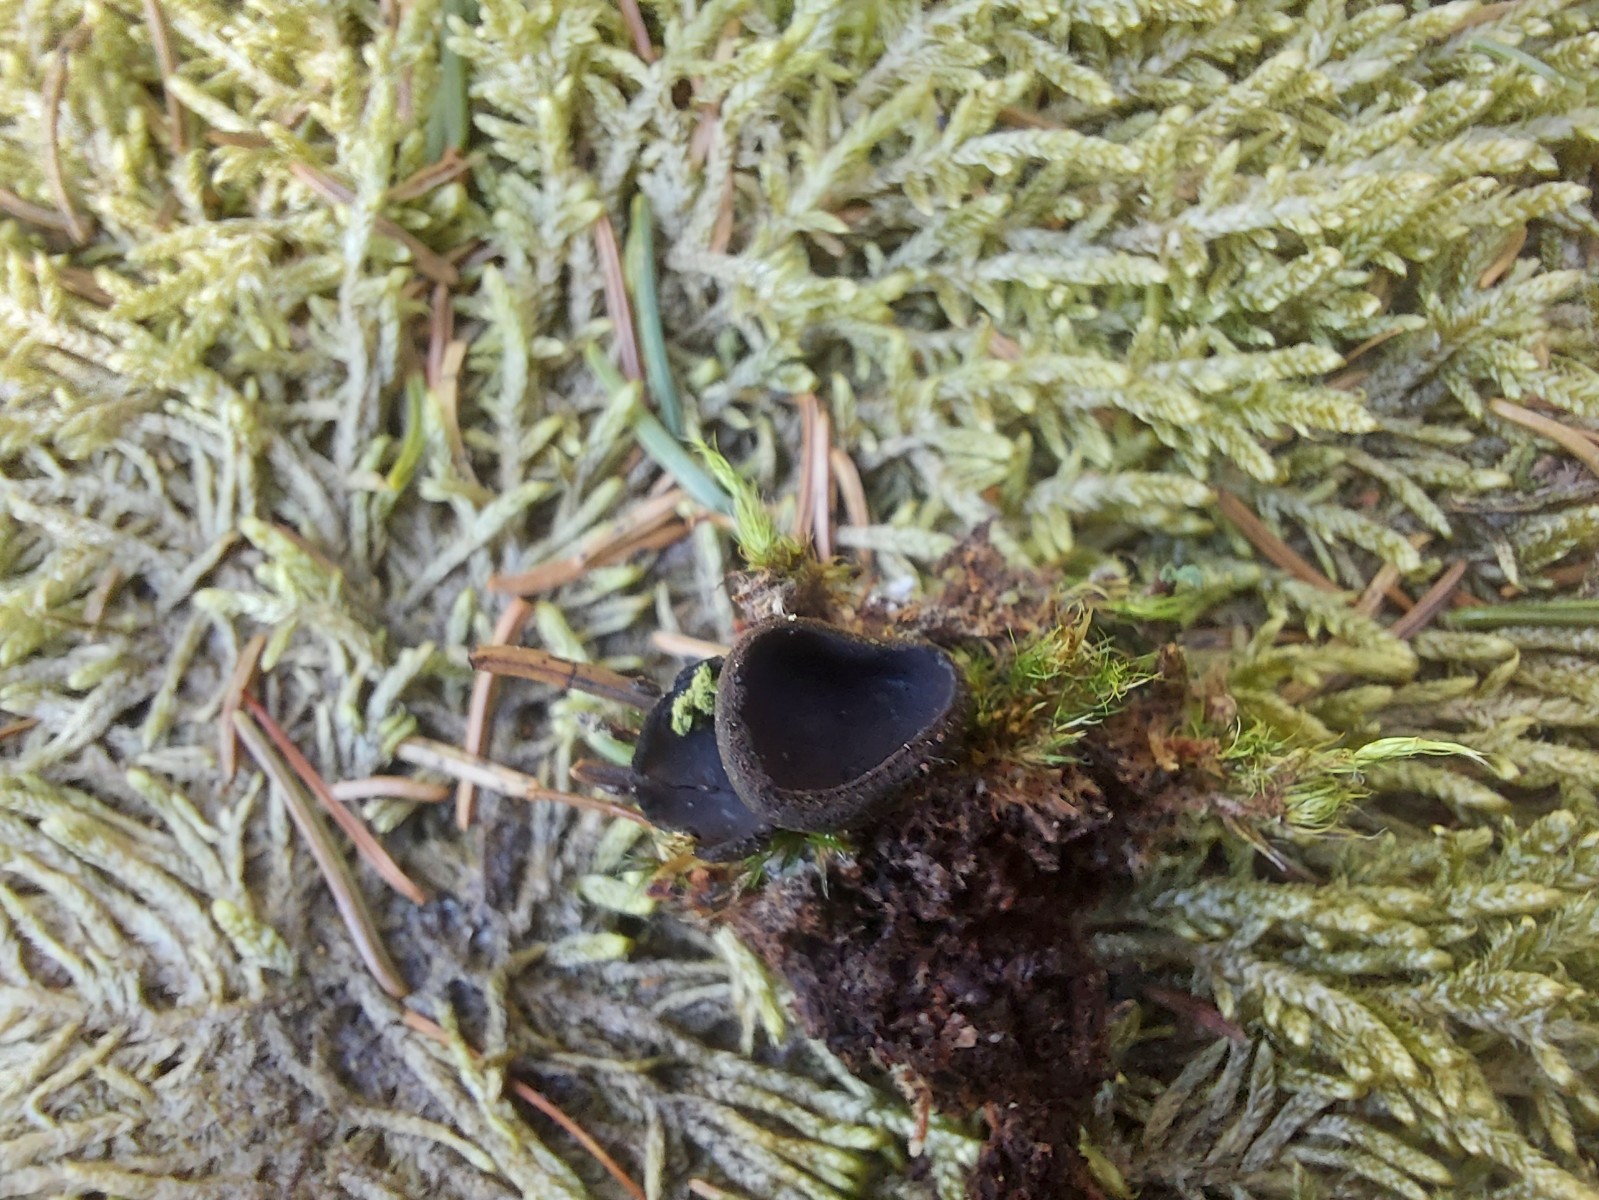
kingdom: Fungi
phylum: Ascomycota
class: Pezizomycetes
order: Pezizales
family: Sarcosomataceae
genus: Pseudoplectania
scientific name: Pseudoplectania nigrella
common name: almindelig sortbæger
